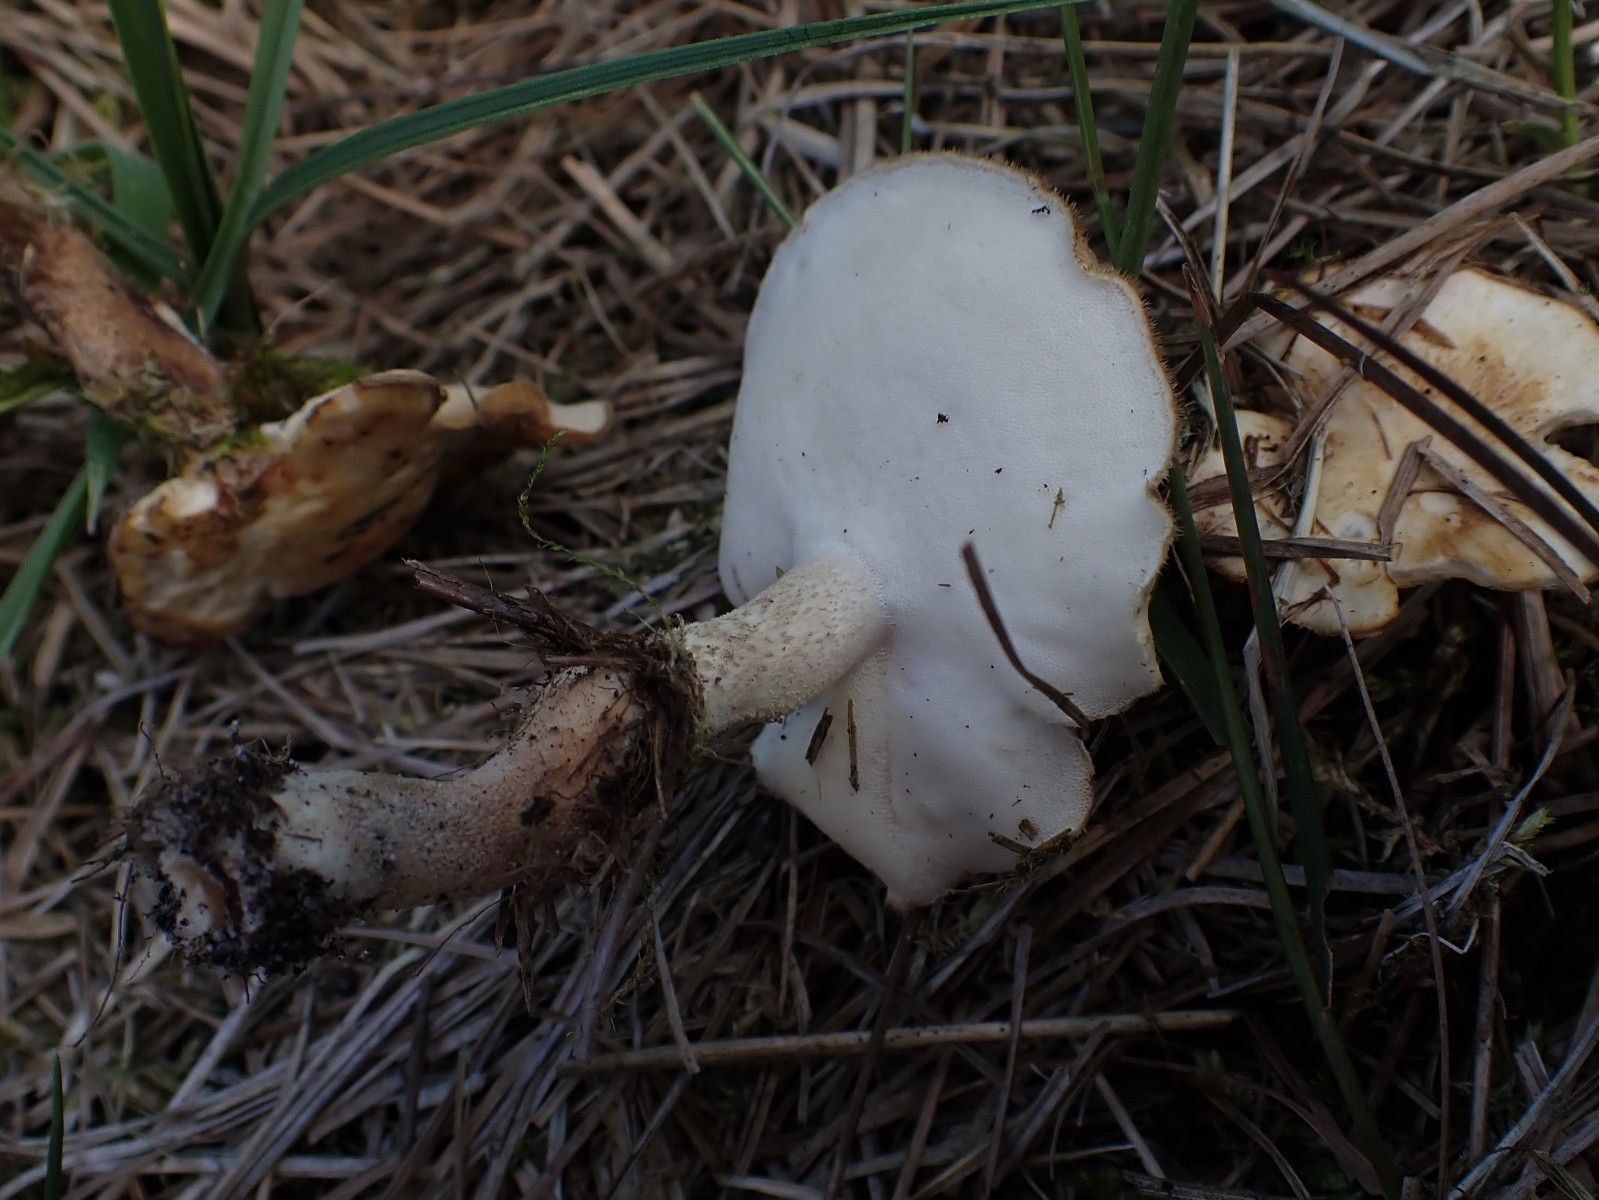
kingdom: Fungi
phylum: Basidiomycota
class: Agaricomycetes
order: Polyporales
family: Polyporaceae
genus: Lentinus
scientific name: Lentinus substrictus
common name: forårs-stilkporesvamp
